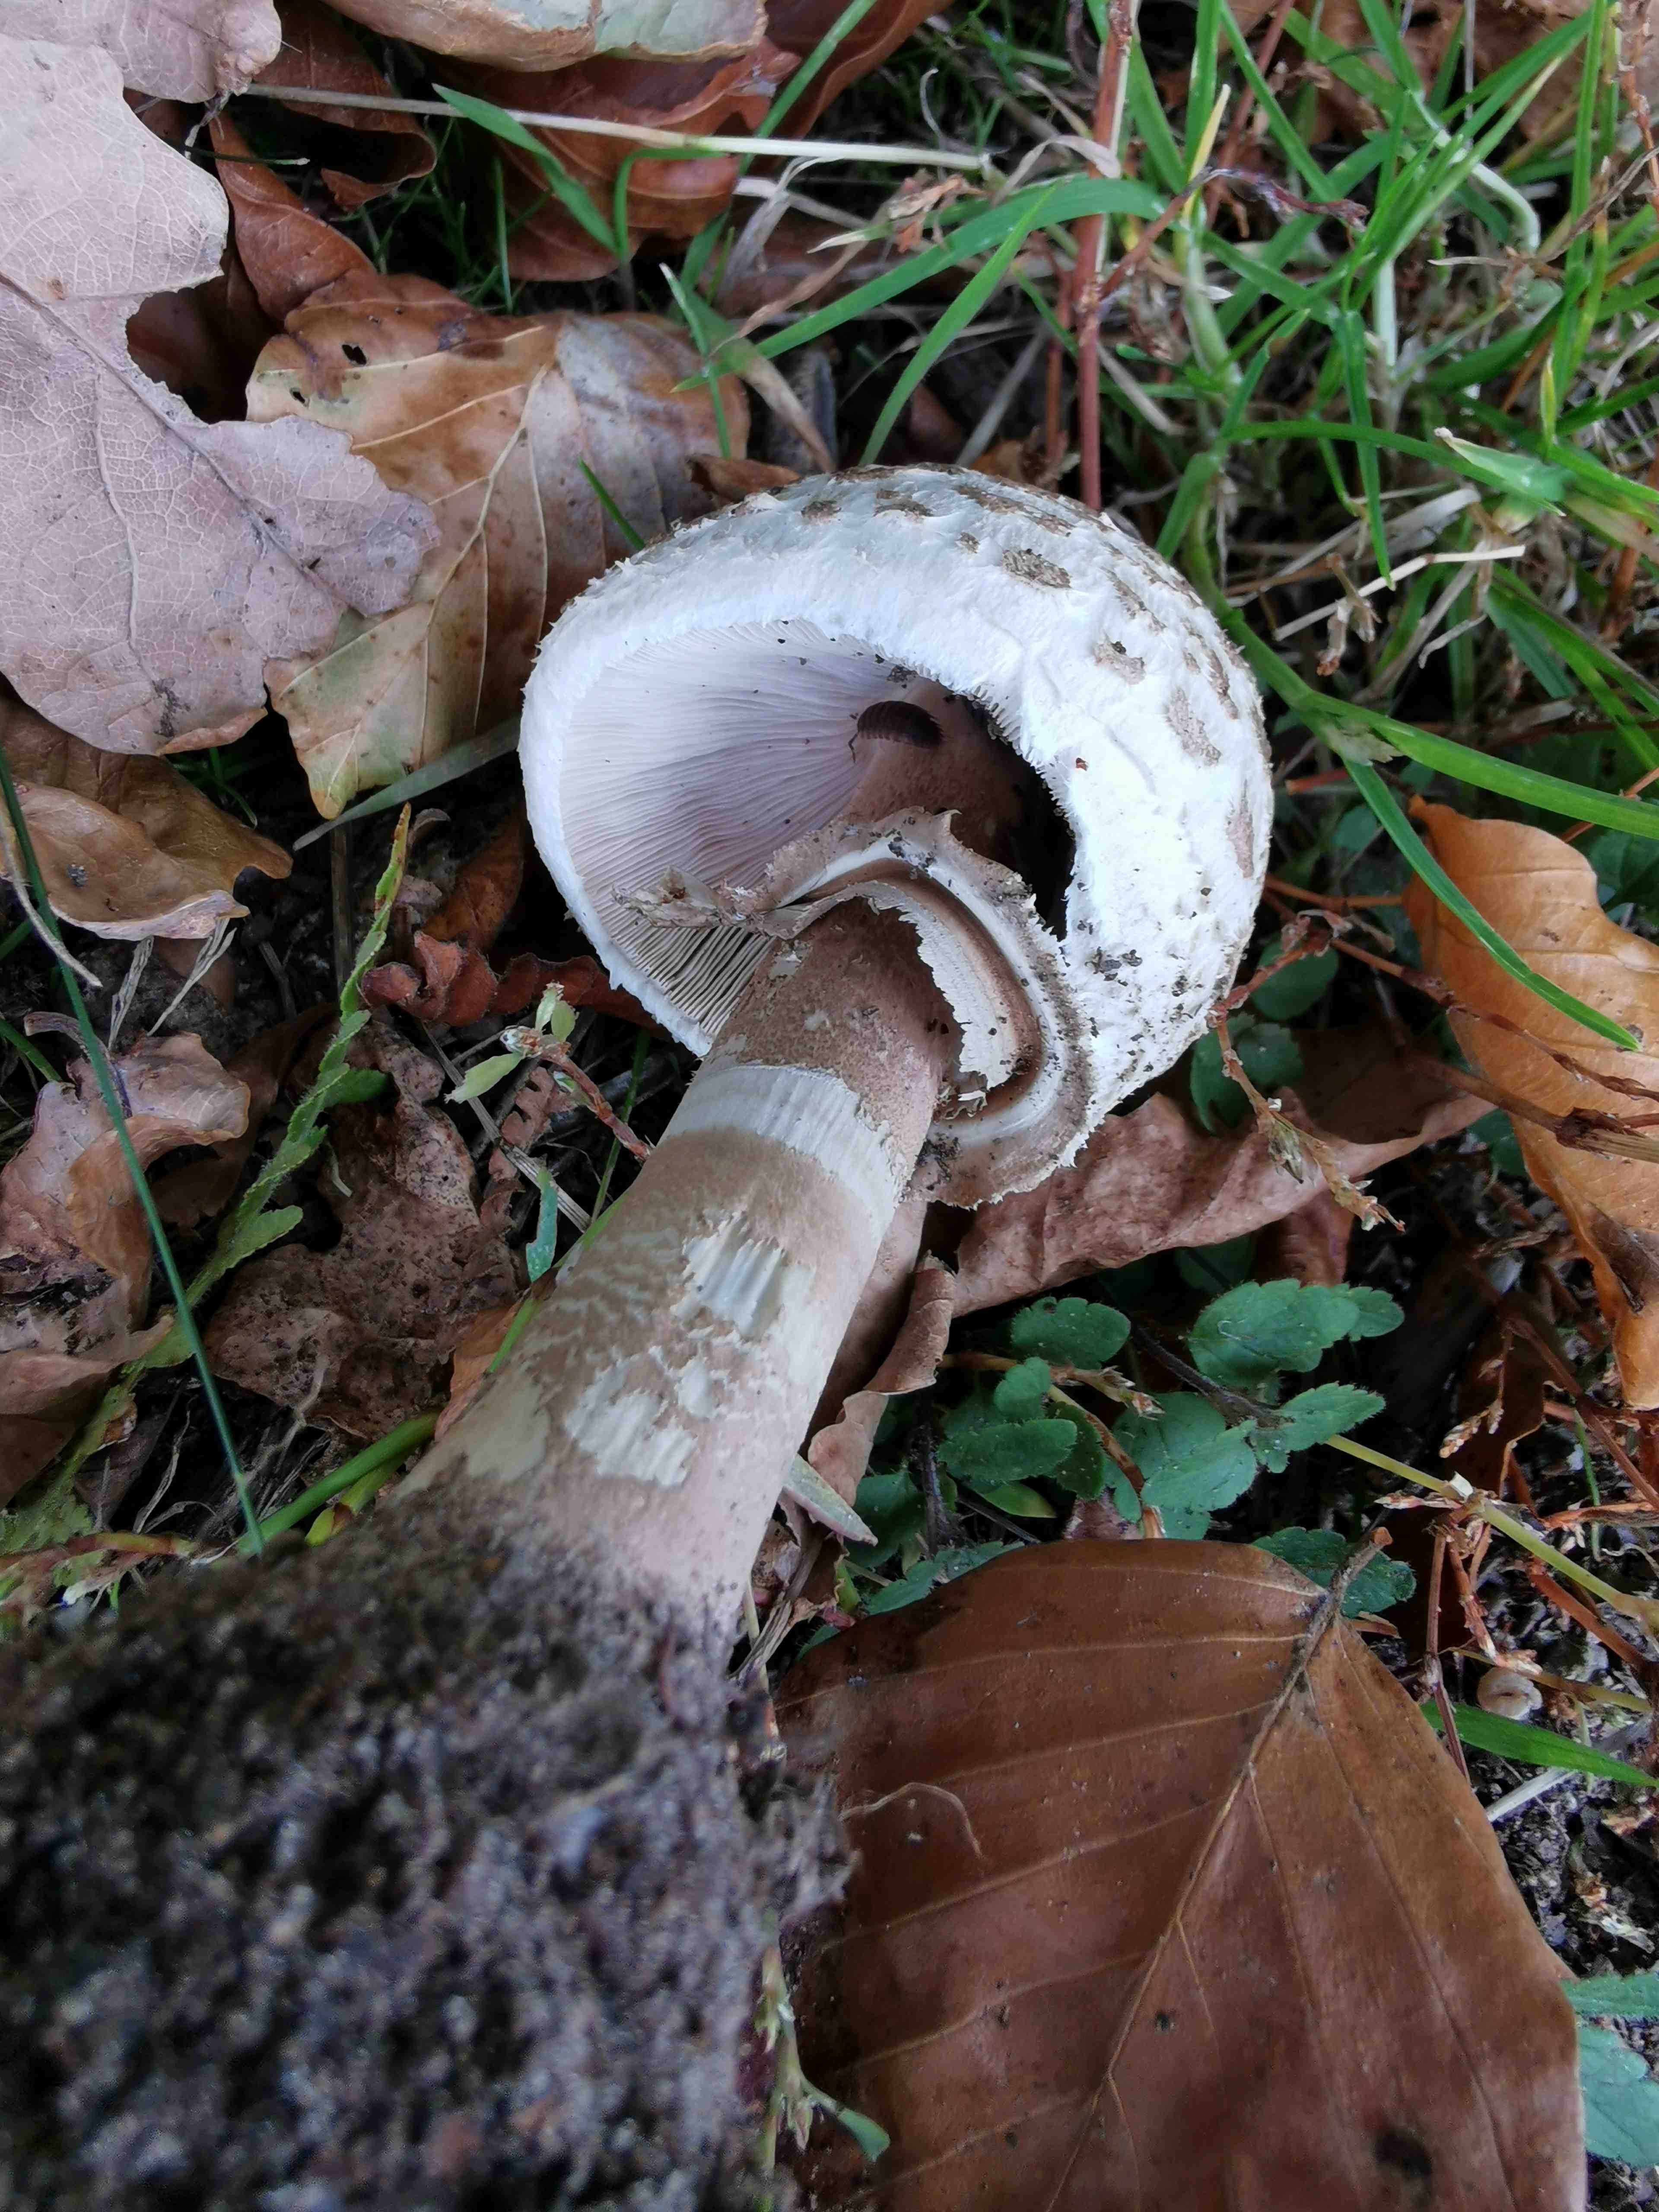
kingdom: Fungi
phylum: Basidiomycota
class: Agaricomycetes
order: Agaricales
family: Agaricaceae
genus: Macrolepiota
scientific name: Macrolepiota procera
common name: stor kæmpeparasolhat
